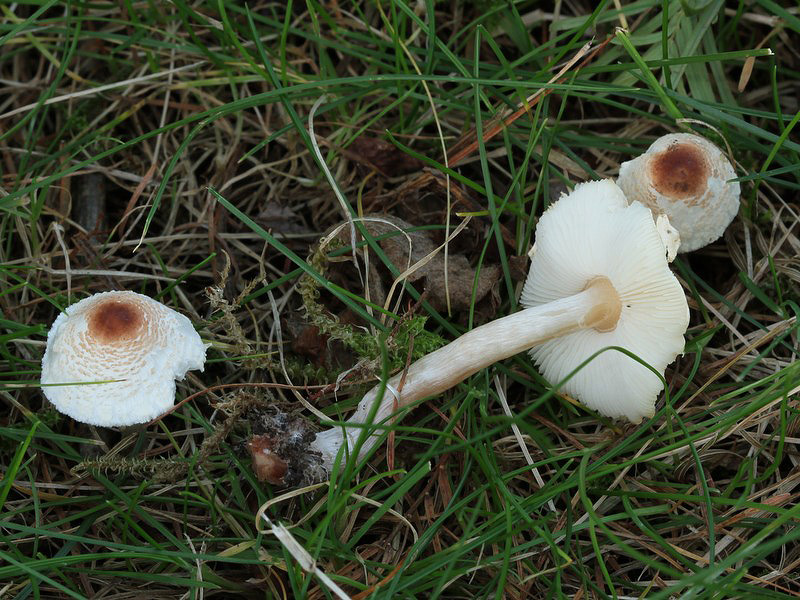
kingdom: Fungi
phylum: Basidiomycota
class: Agaricomycetes
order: Agaricales
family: Agaricaceae
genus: Lepiota
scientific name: Lepiota cristata
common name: stinkende parasolhat
